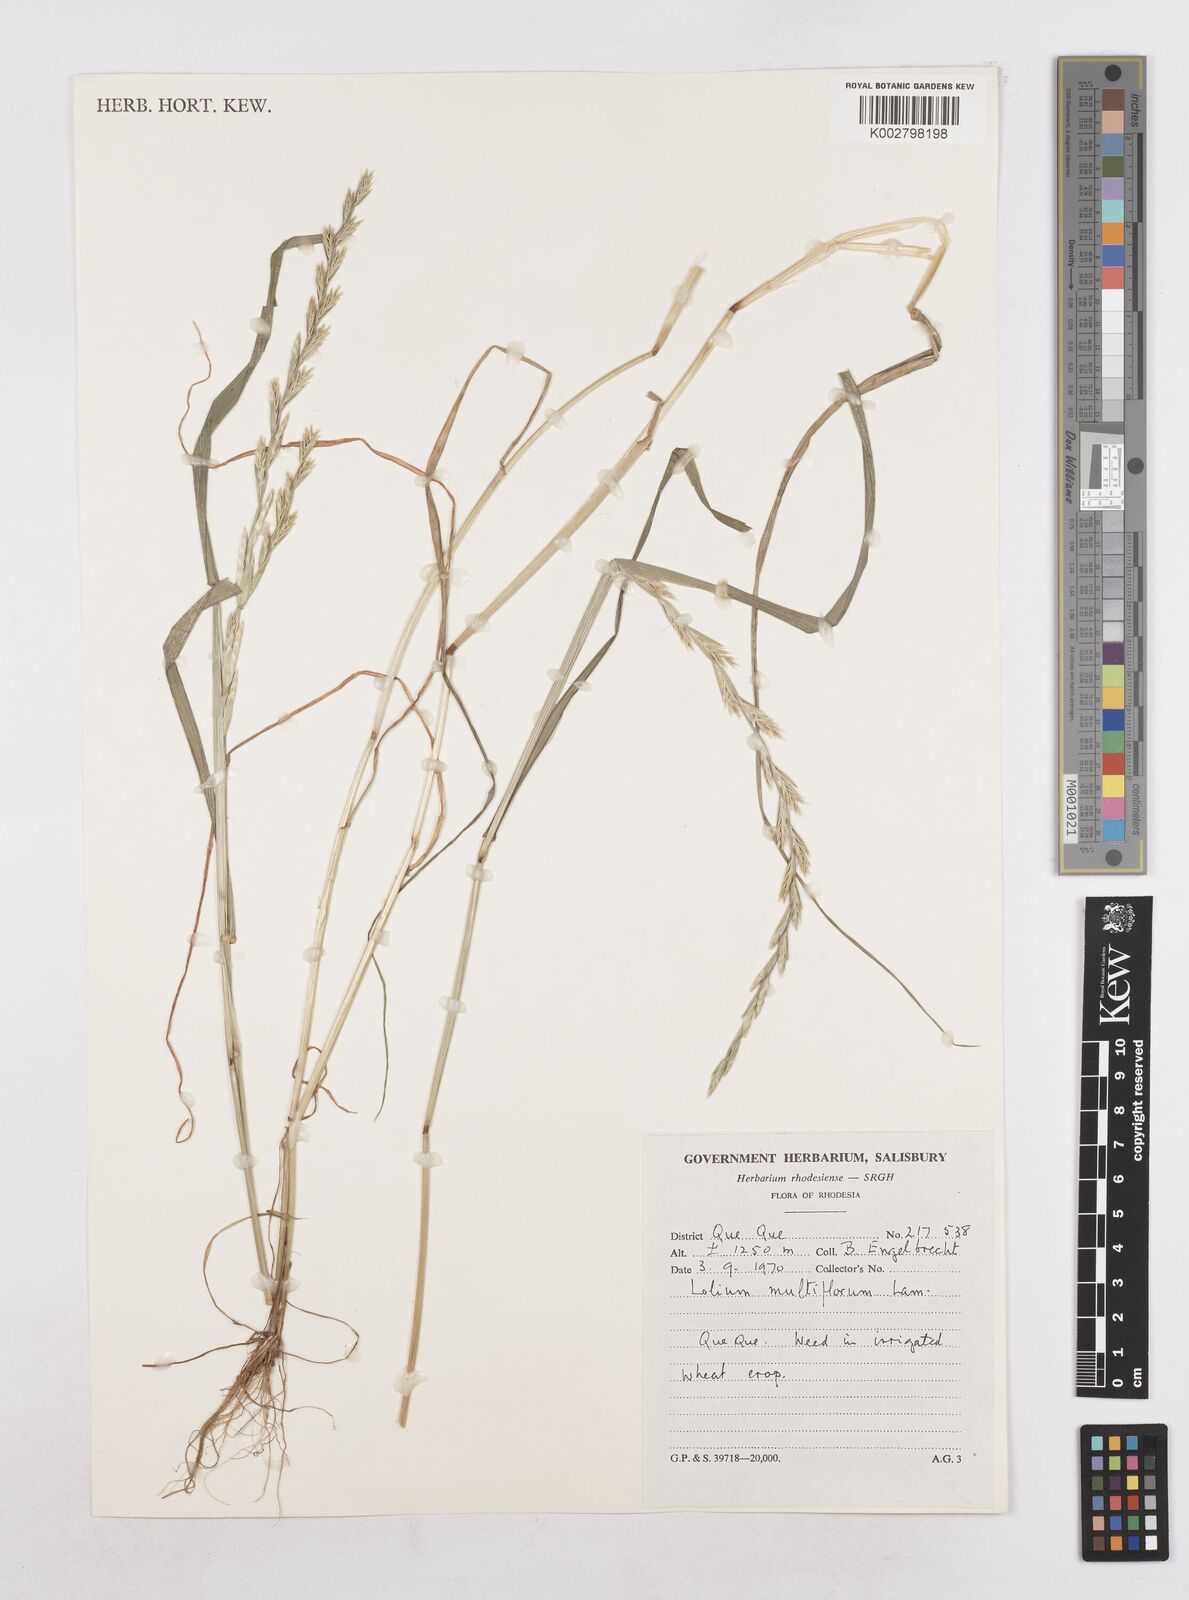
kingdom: Plantae
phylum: Tracheophyta
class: Liliopsida
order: Poales
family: Poaceae
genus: Lolium
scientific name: Lolium multiflorum
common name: Annual ryegrass
